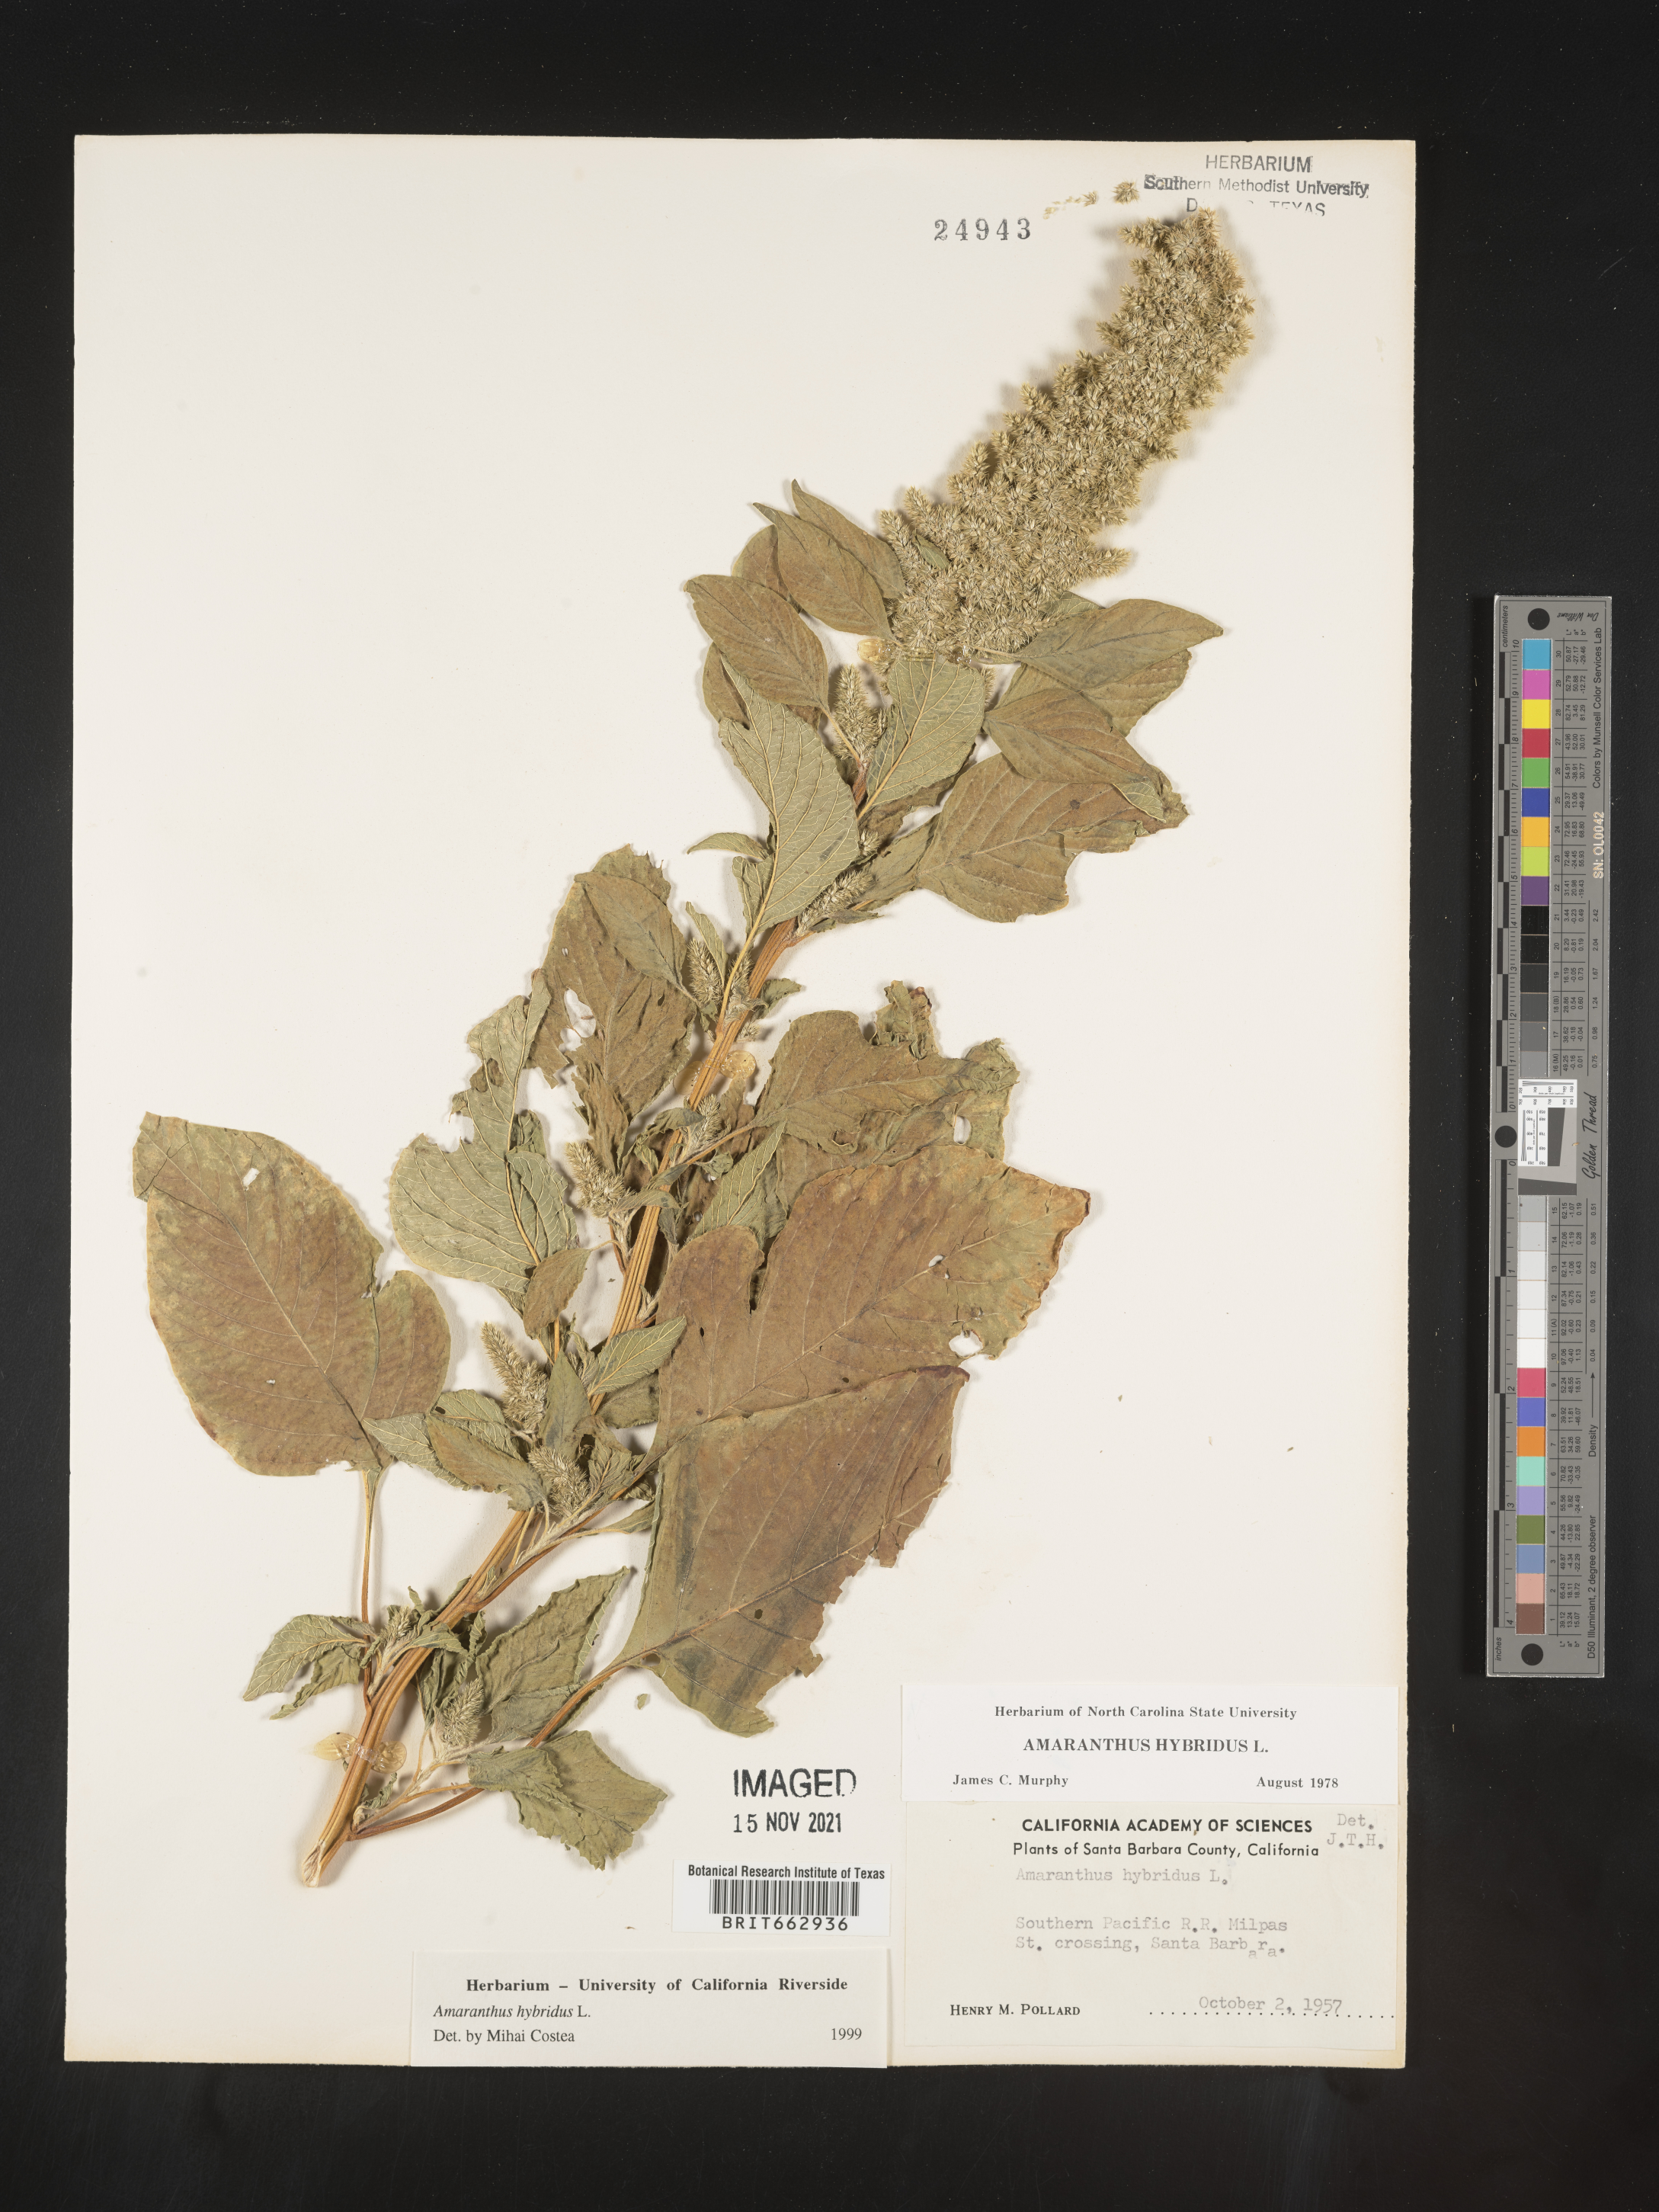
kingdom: Plantae
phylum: Tracheophyta
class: Magnoliopsida
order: Caryophyllales
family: Amaranthaceae
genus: Amaranthus
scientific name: Amaranthus hybridus
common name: Green amaranth
